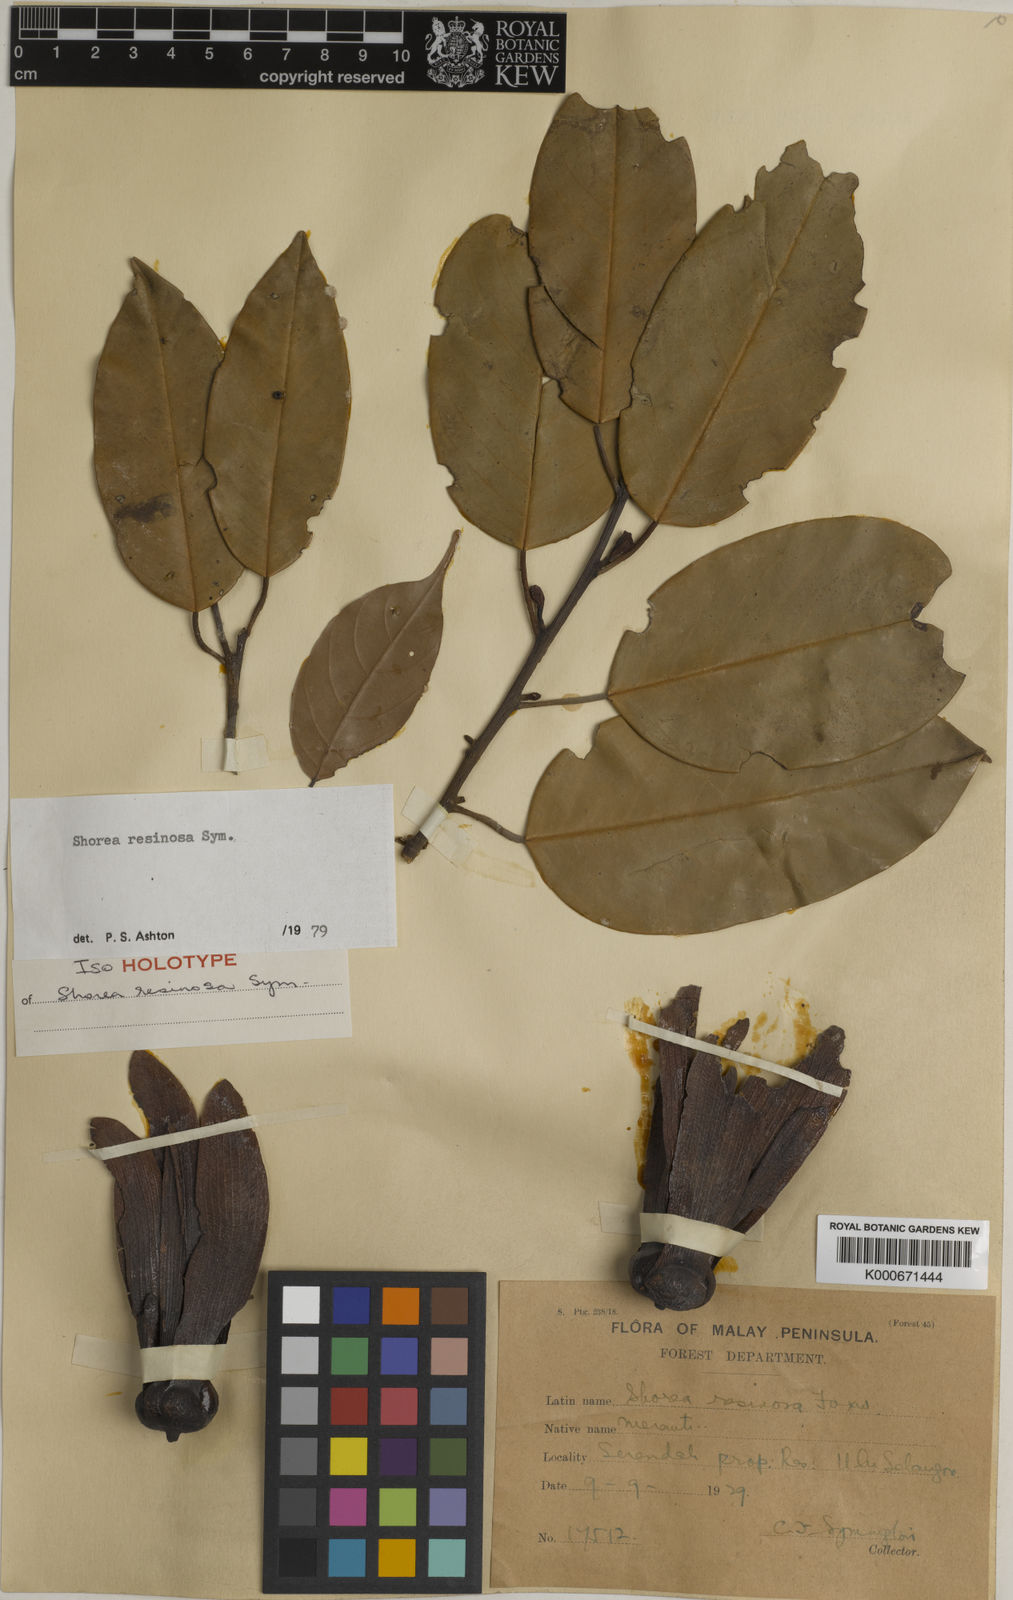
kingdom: Plantae
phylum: Tracheophyta
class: Magnoliopsida
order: Malvales
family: Dipterocarpaceae
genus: Anthoshorea
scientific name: Anthoshorea resinosa
